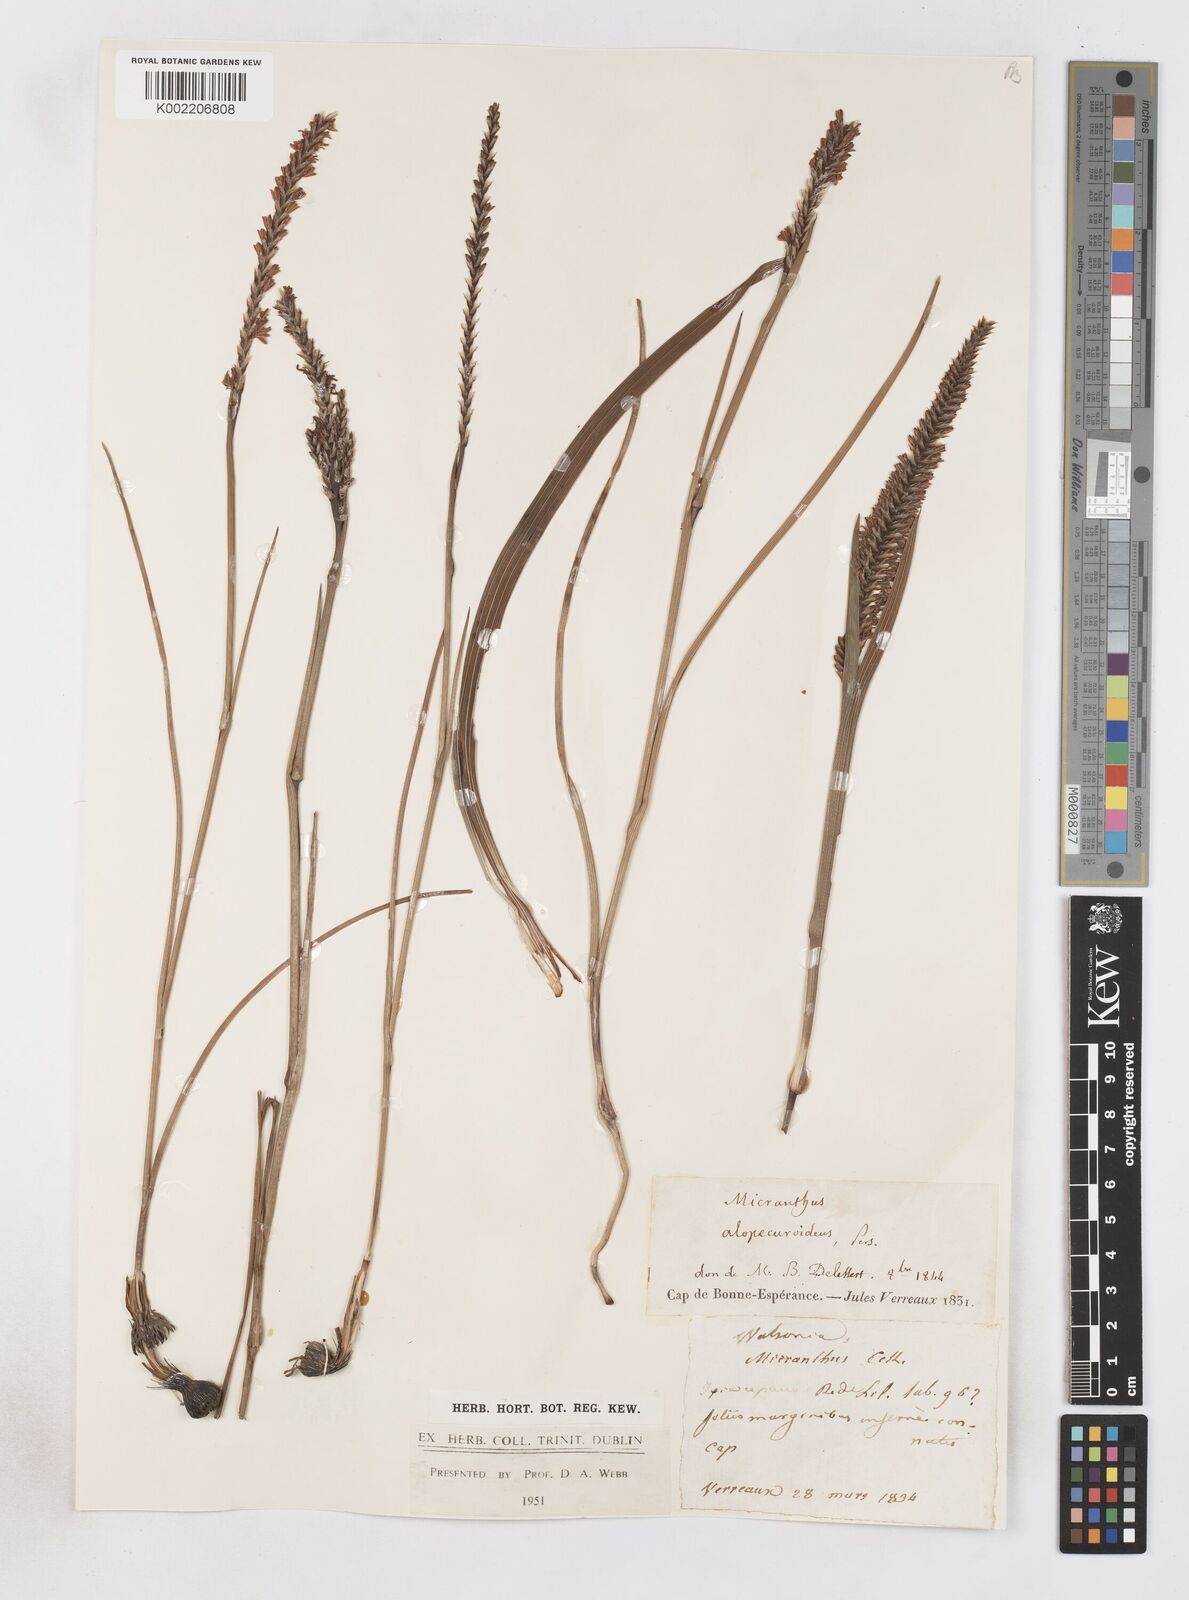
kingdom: Plantae
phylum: Tracheophyta
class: Liliopsida
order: Asparagales
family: Iridaceae
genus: Micranthus
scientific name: Micranthus alopecuroides
